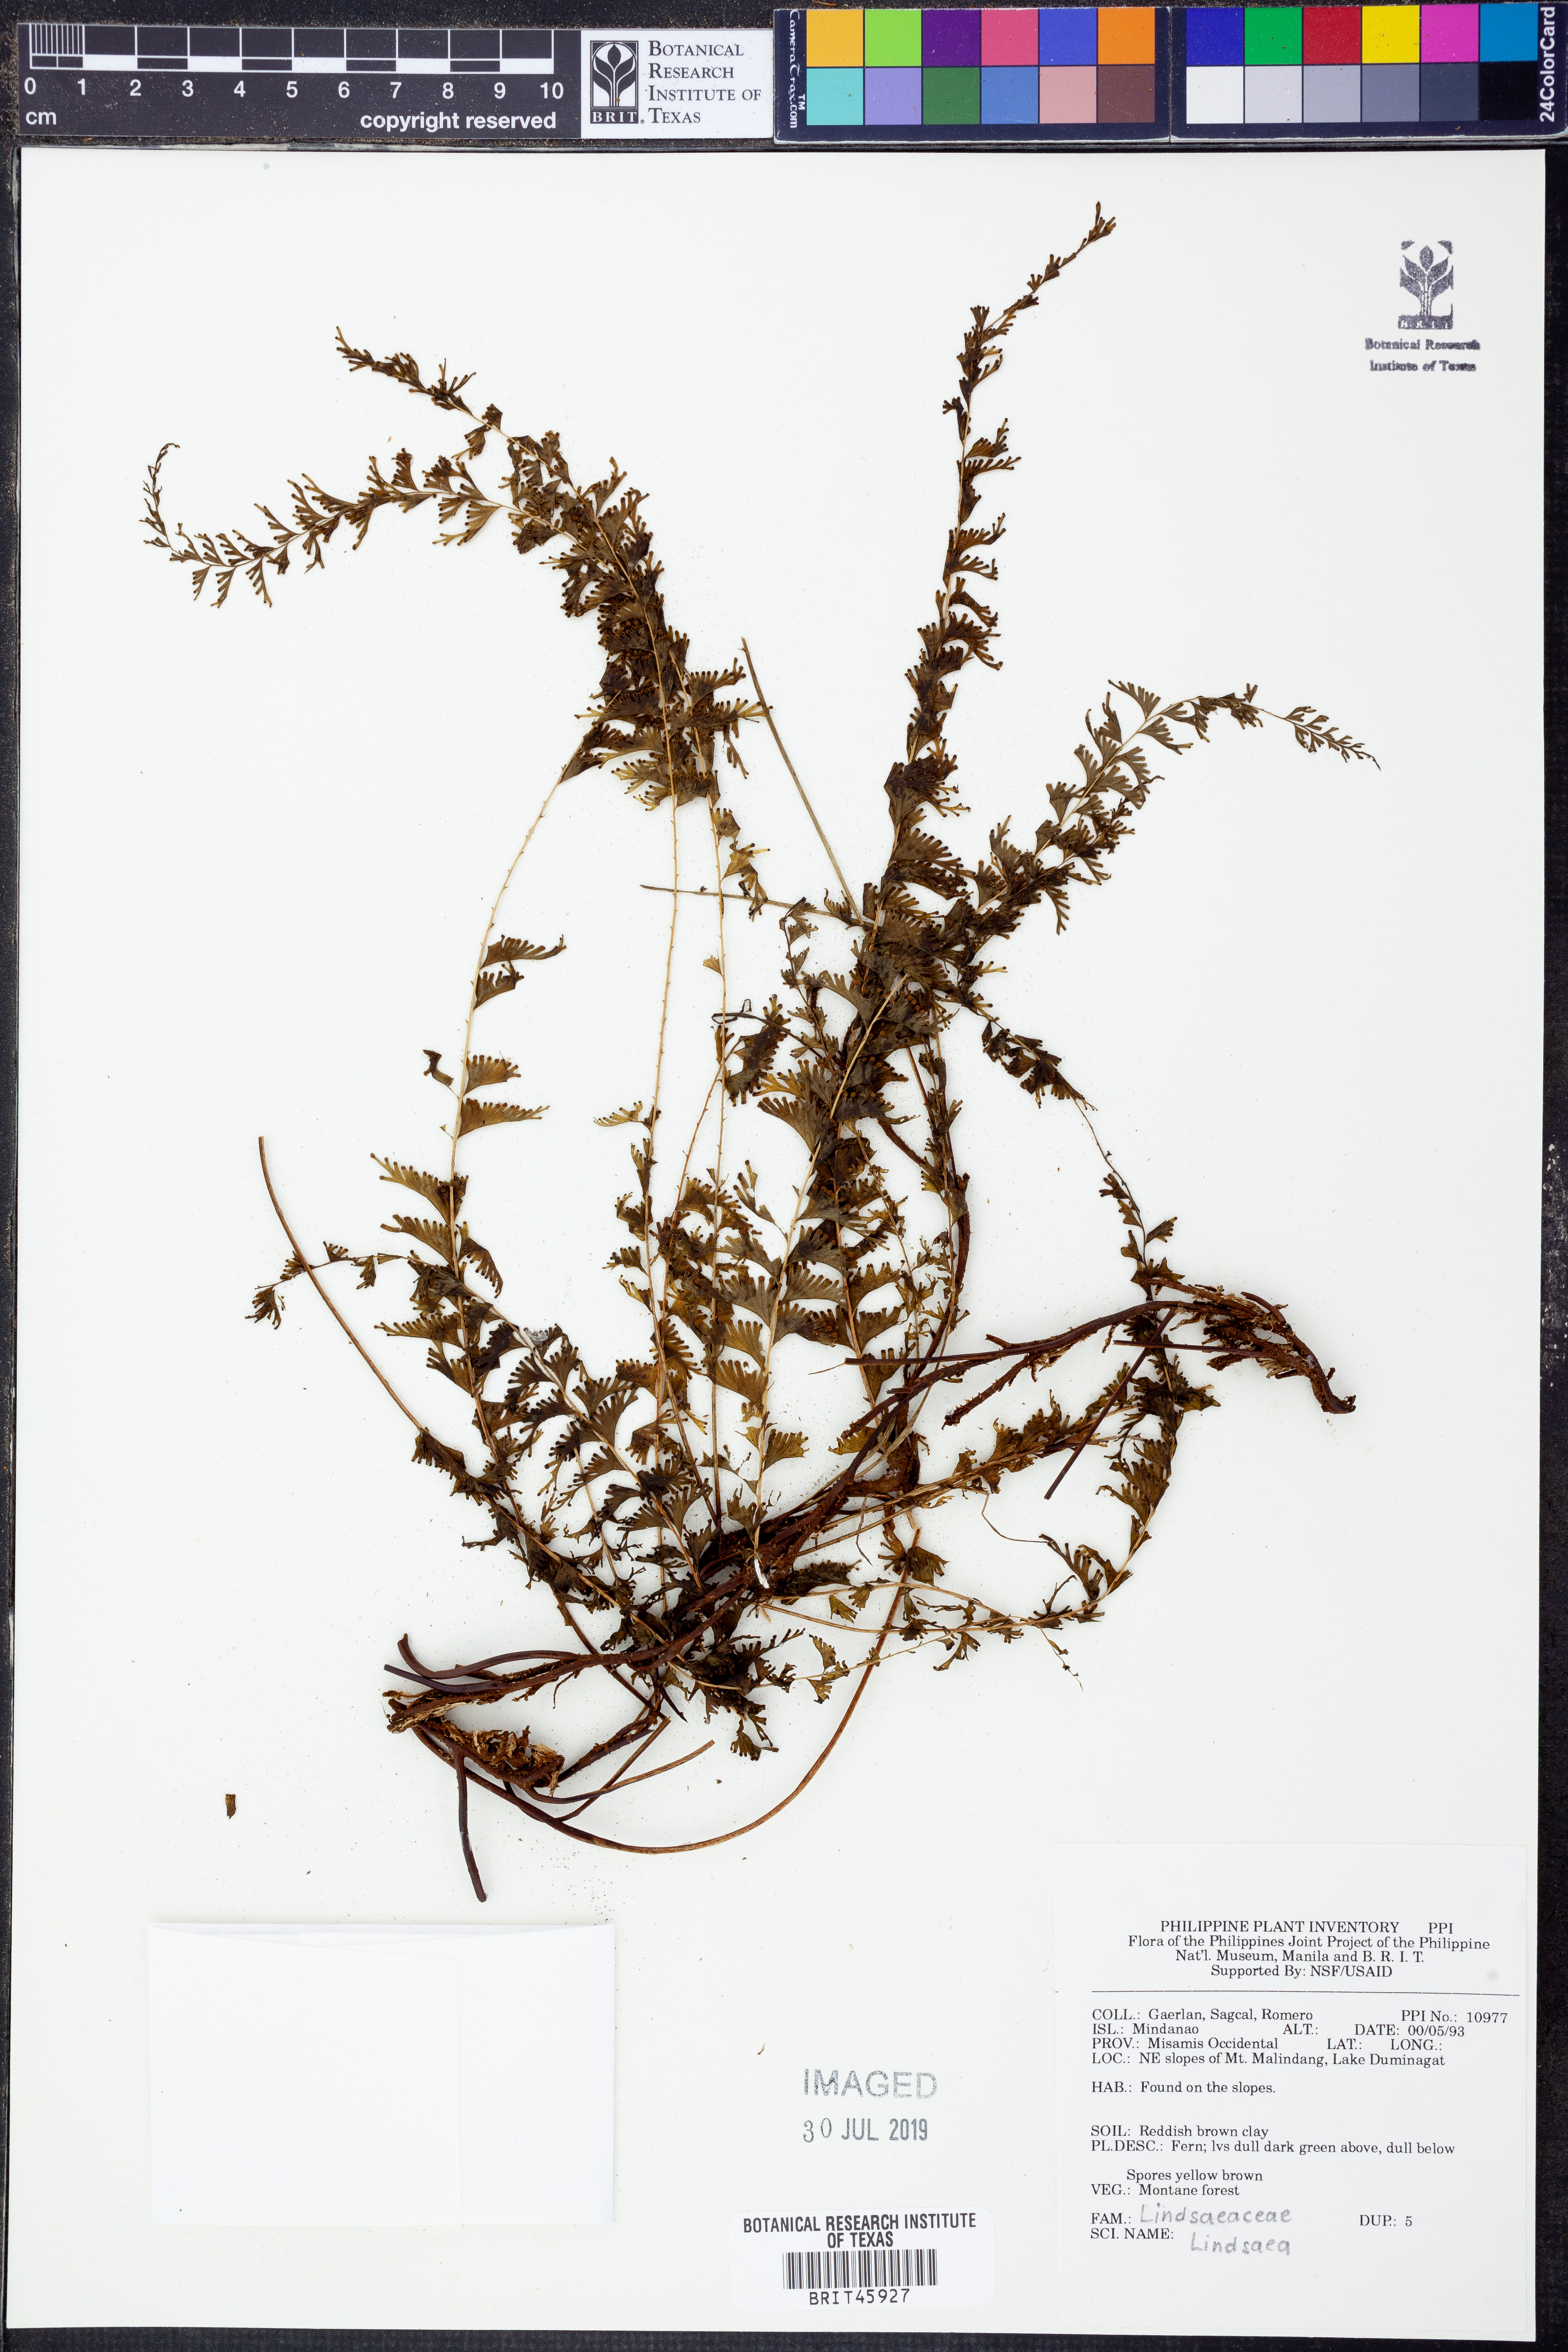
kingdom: Plantae
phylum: Tracheophyta
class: Polypodiopsida
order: Polypodiales
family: Lindsaeaceae
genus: Lindsaea
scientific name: Lindsaea
